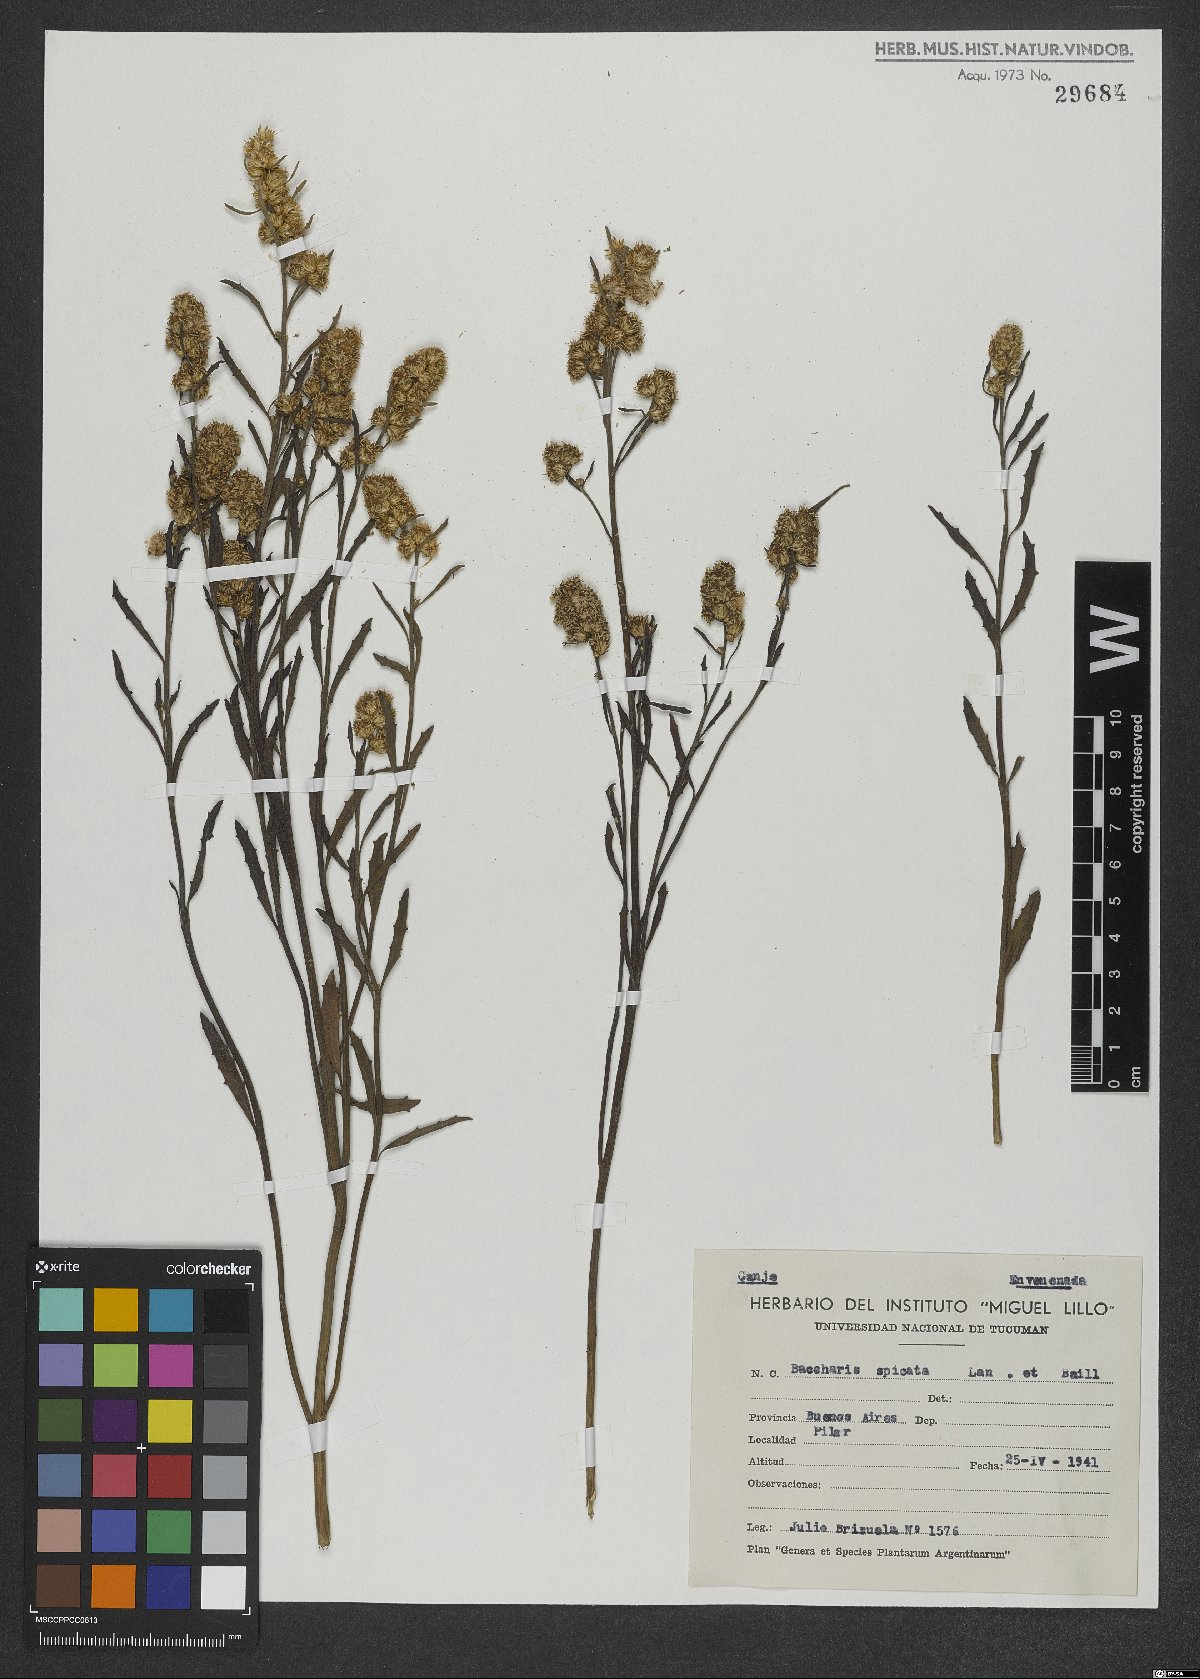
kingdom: Plantae
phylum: Tracheophyta
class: Magnoliopsida
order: Asterales
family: Asteraceae
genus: Baccharis
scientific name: Baccharis spicata
